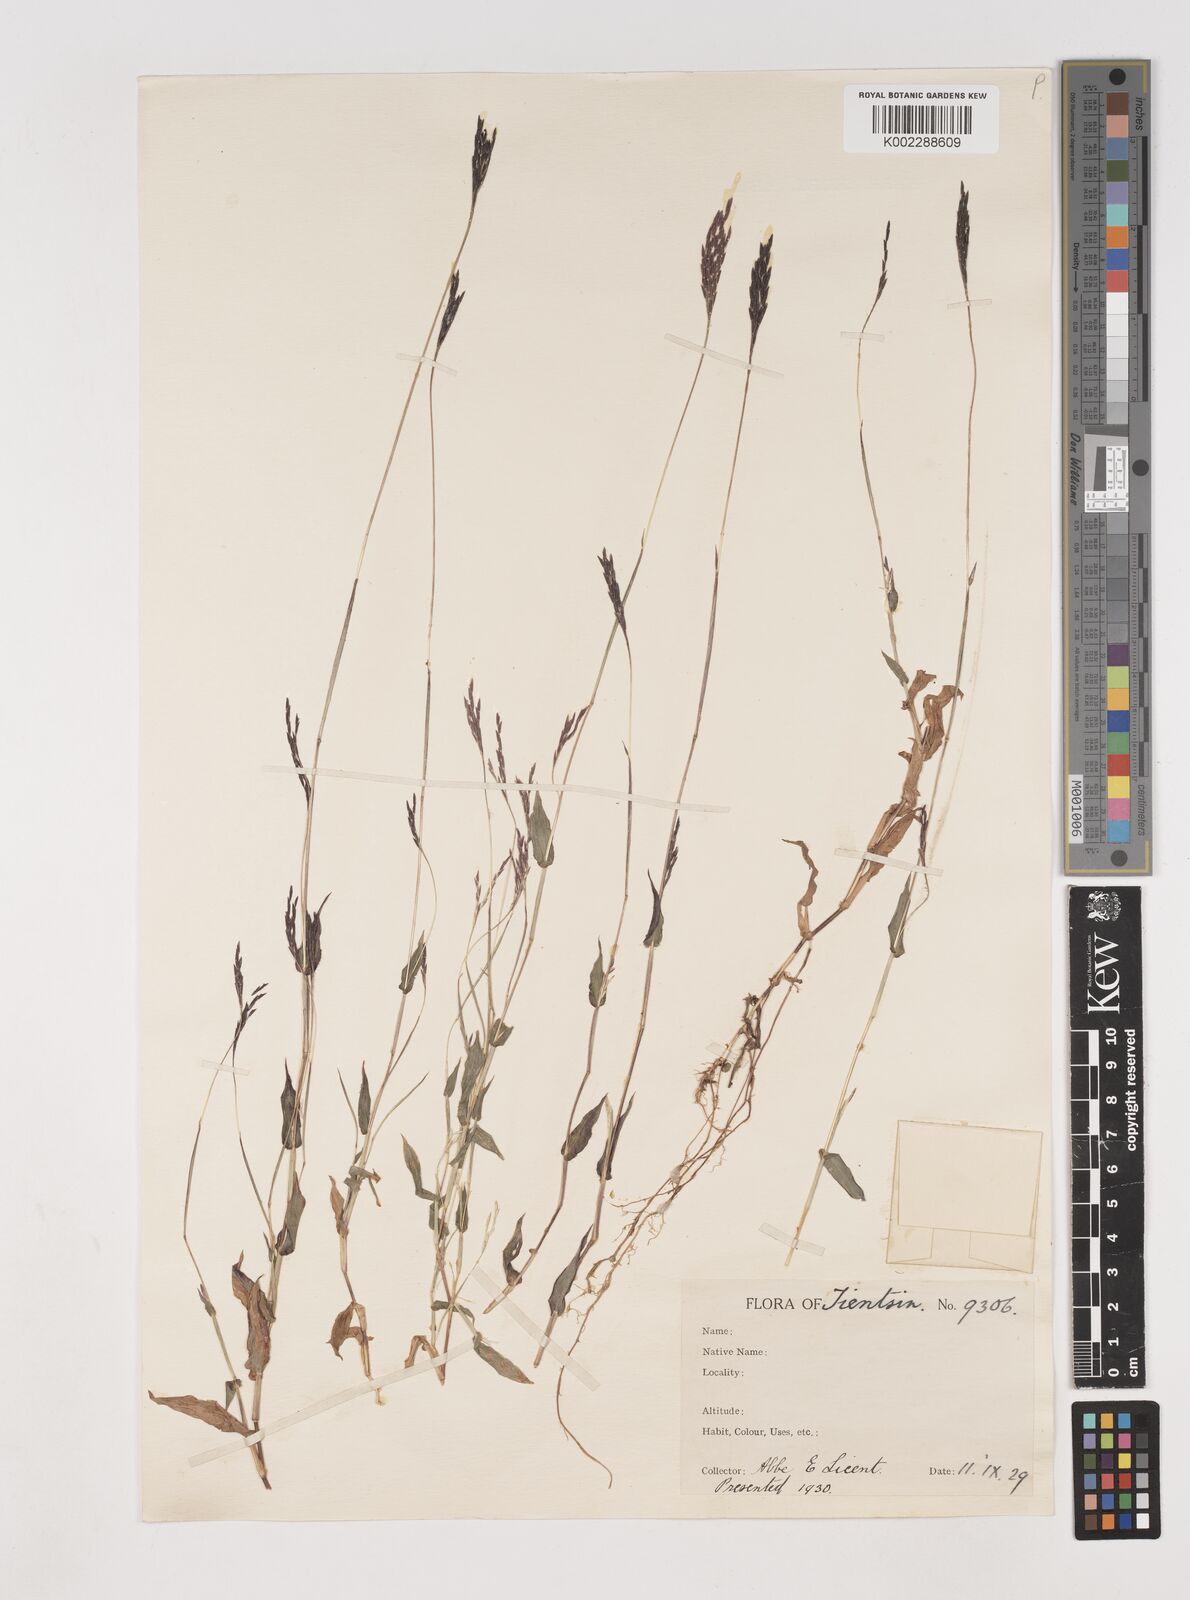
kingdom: Plantae
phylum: Tracheophyta
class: Liliopsida
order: Poales
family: Poaceae
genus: Arthraxon
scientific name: Arthraxon hispidus
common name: Small carpgrass
